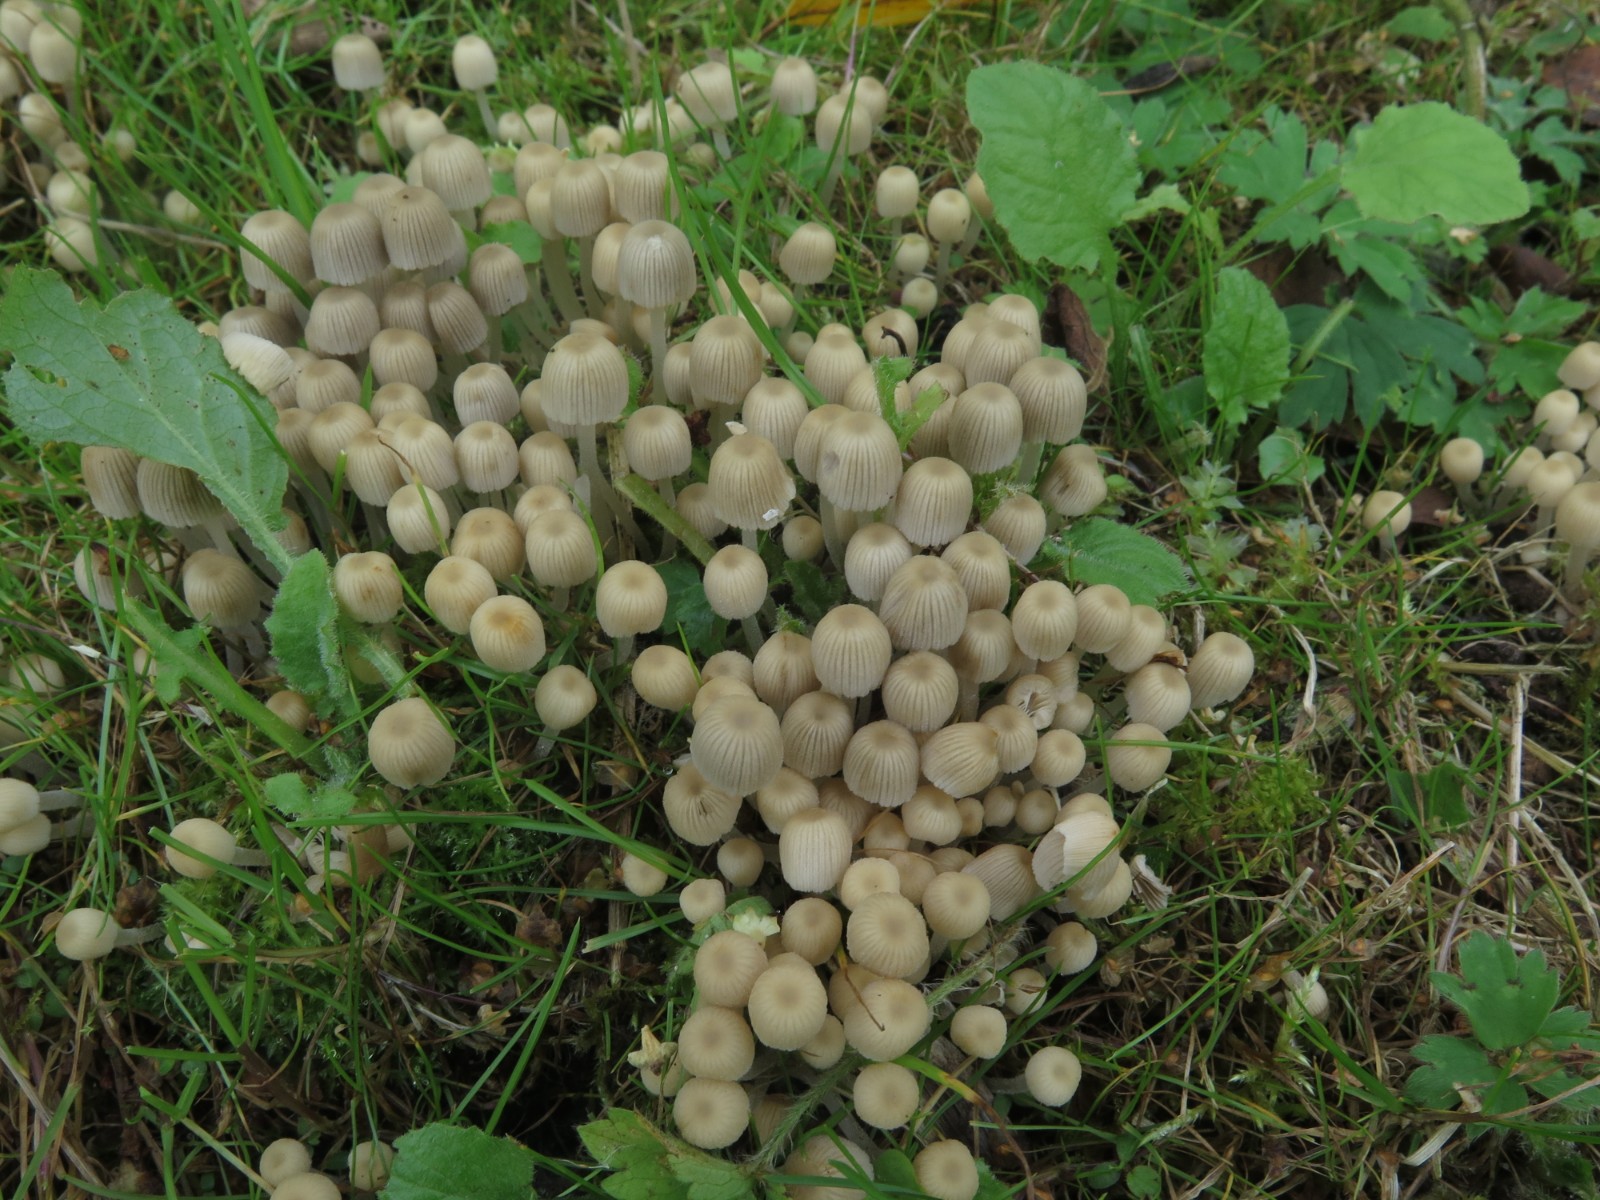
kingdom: Fungi
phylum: Basidiomycota
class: Agaricomycetes
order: Agaricales
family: Psathyrellaceae
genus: Coprinellus
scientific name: Coprinellus disseminatus
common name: bredsået blækhat
